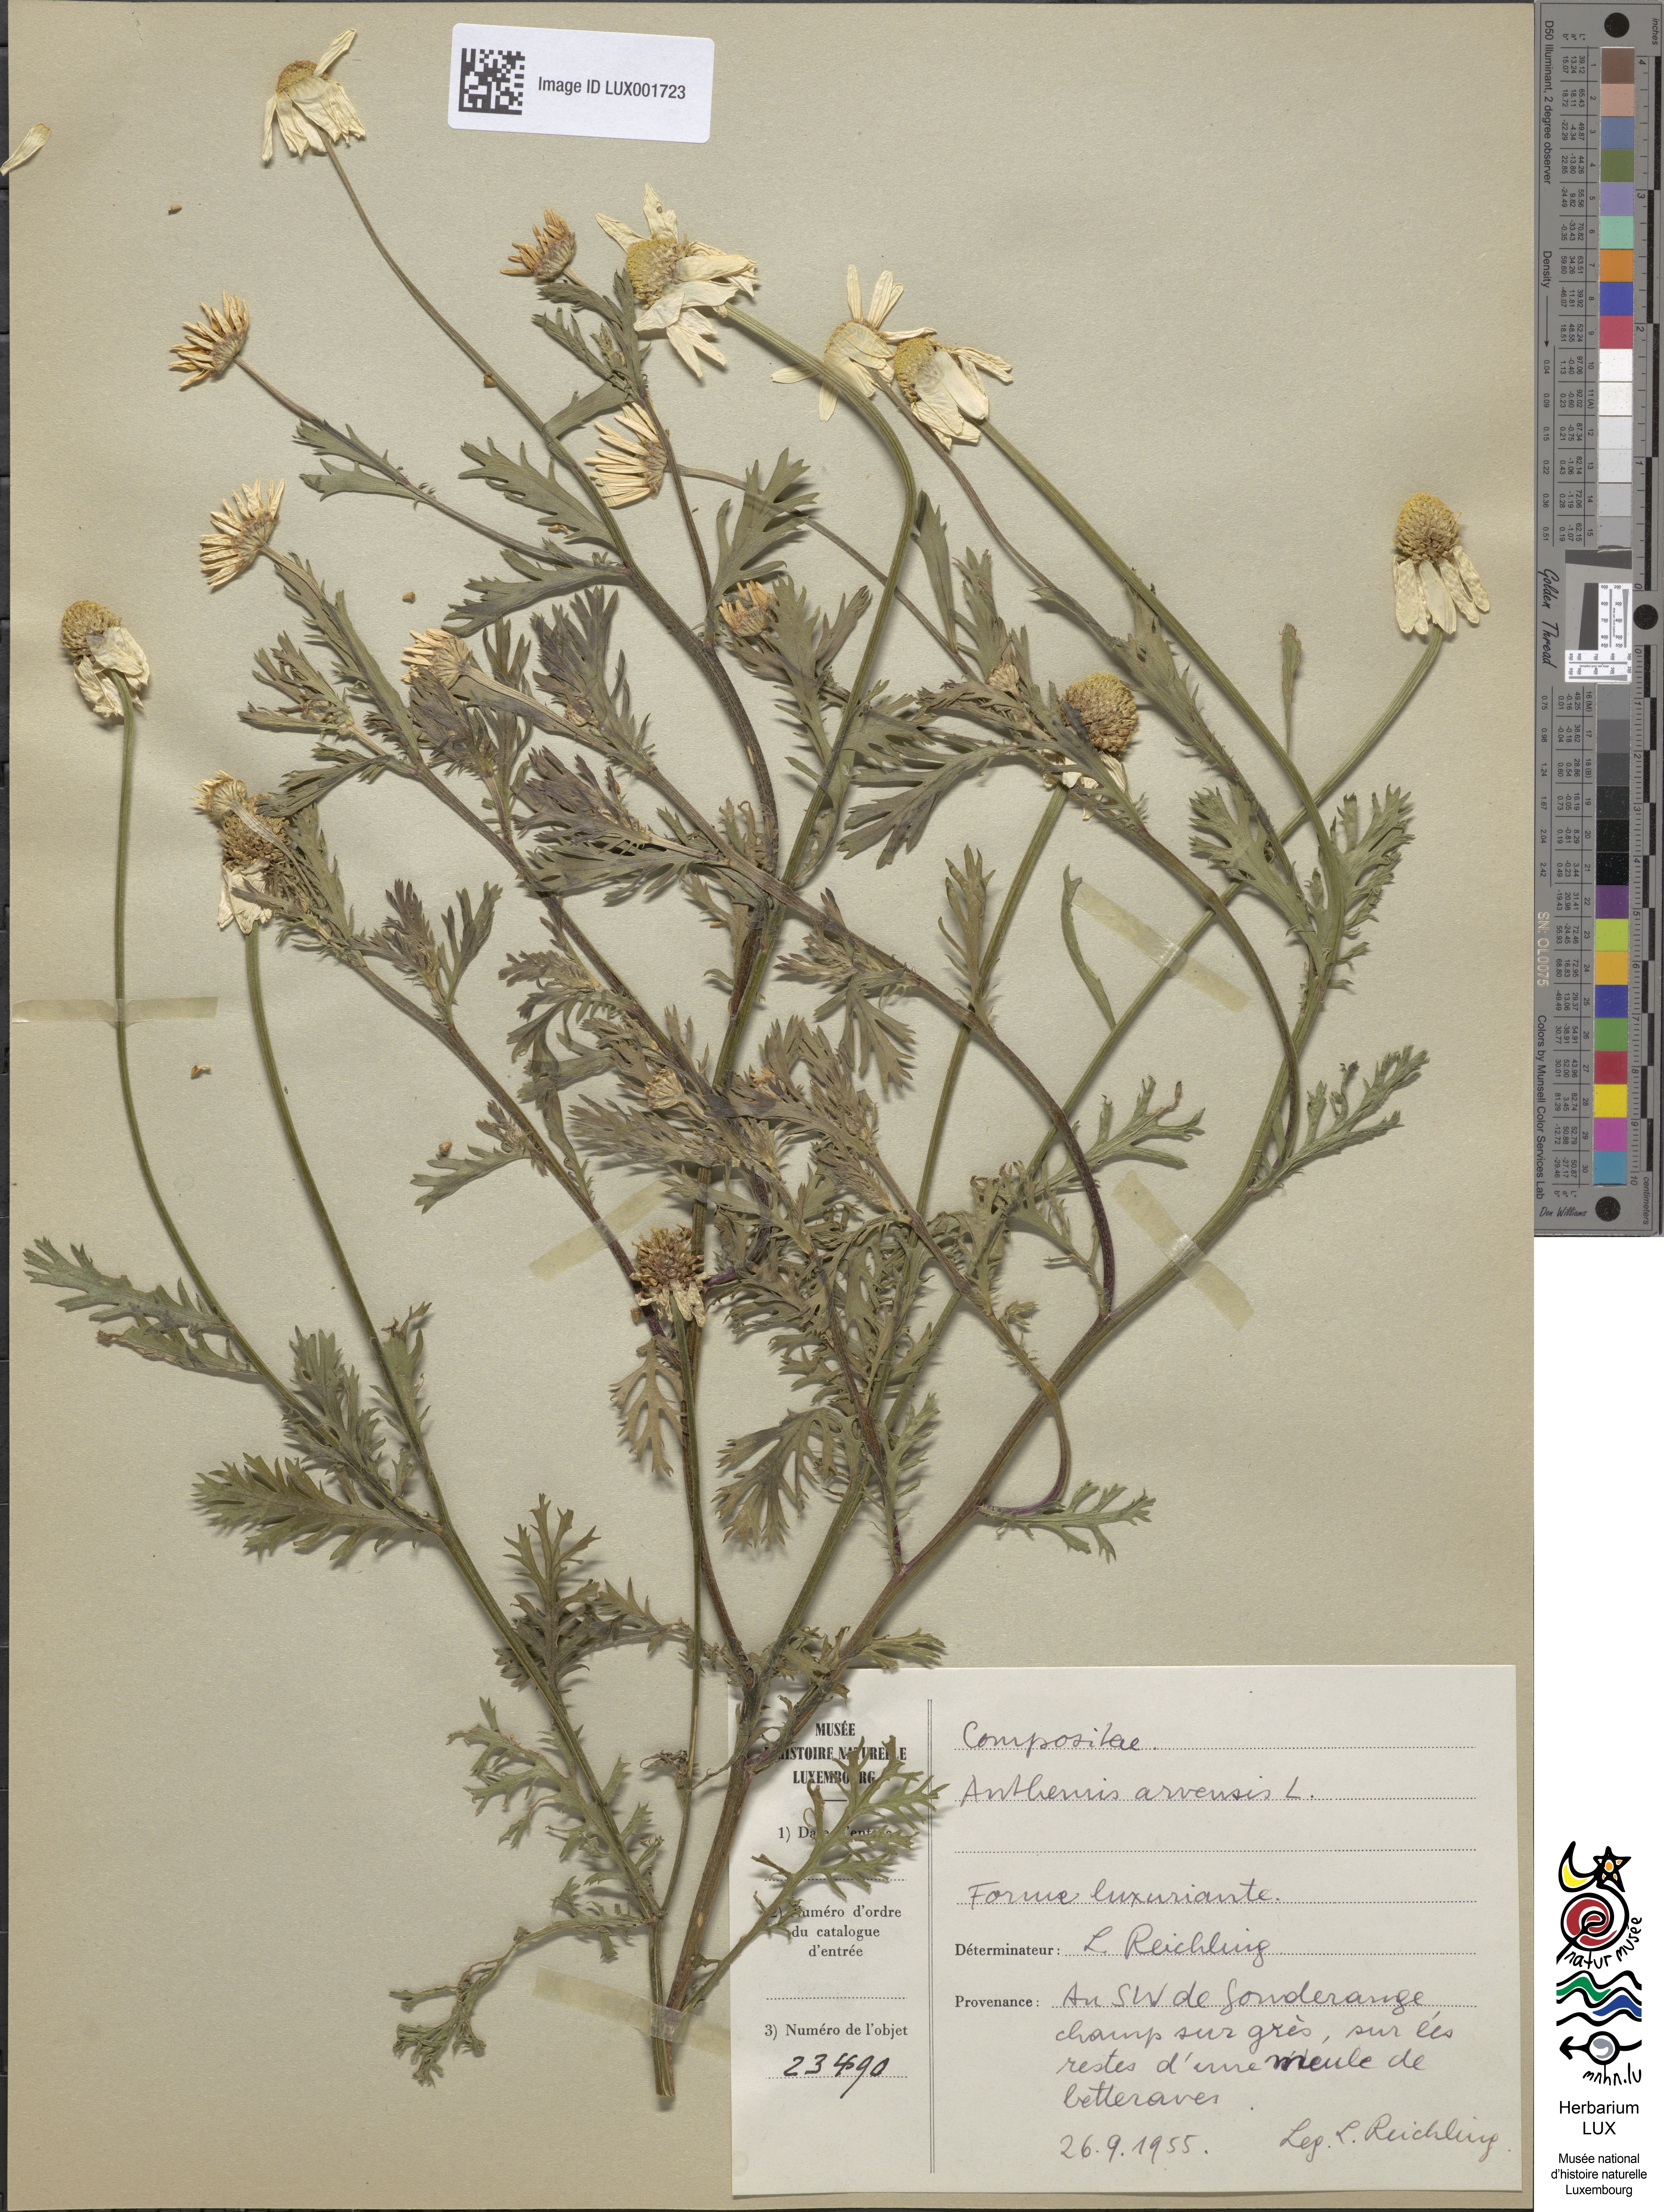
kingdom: Plantae
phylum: Tracheophyta
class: Magnoliopsida
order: Asterales
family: Asteraceae
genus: Anthemis
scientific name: Anthemis arvensis
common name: Corn chamomile
